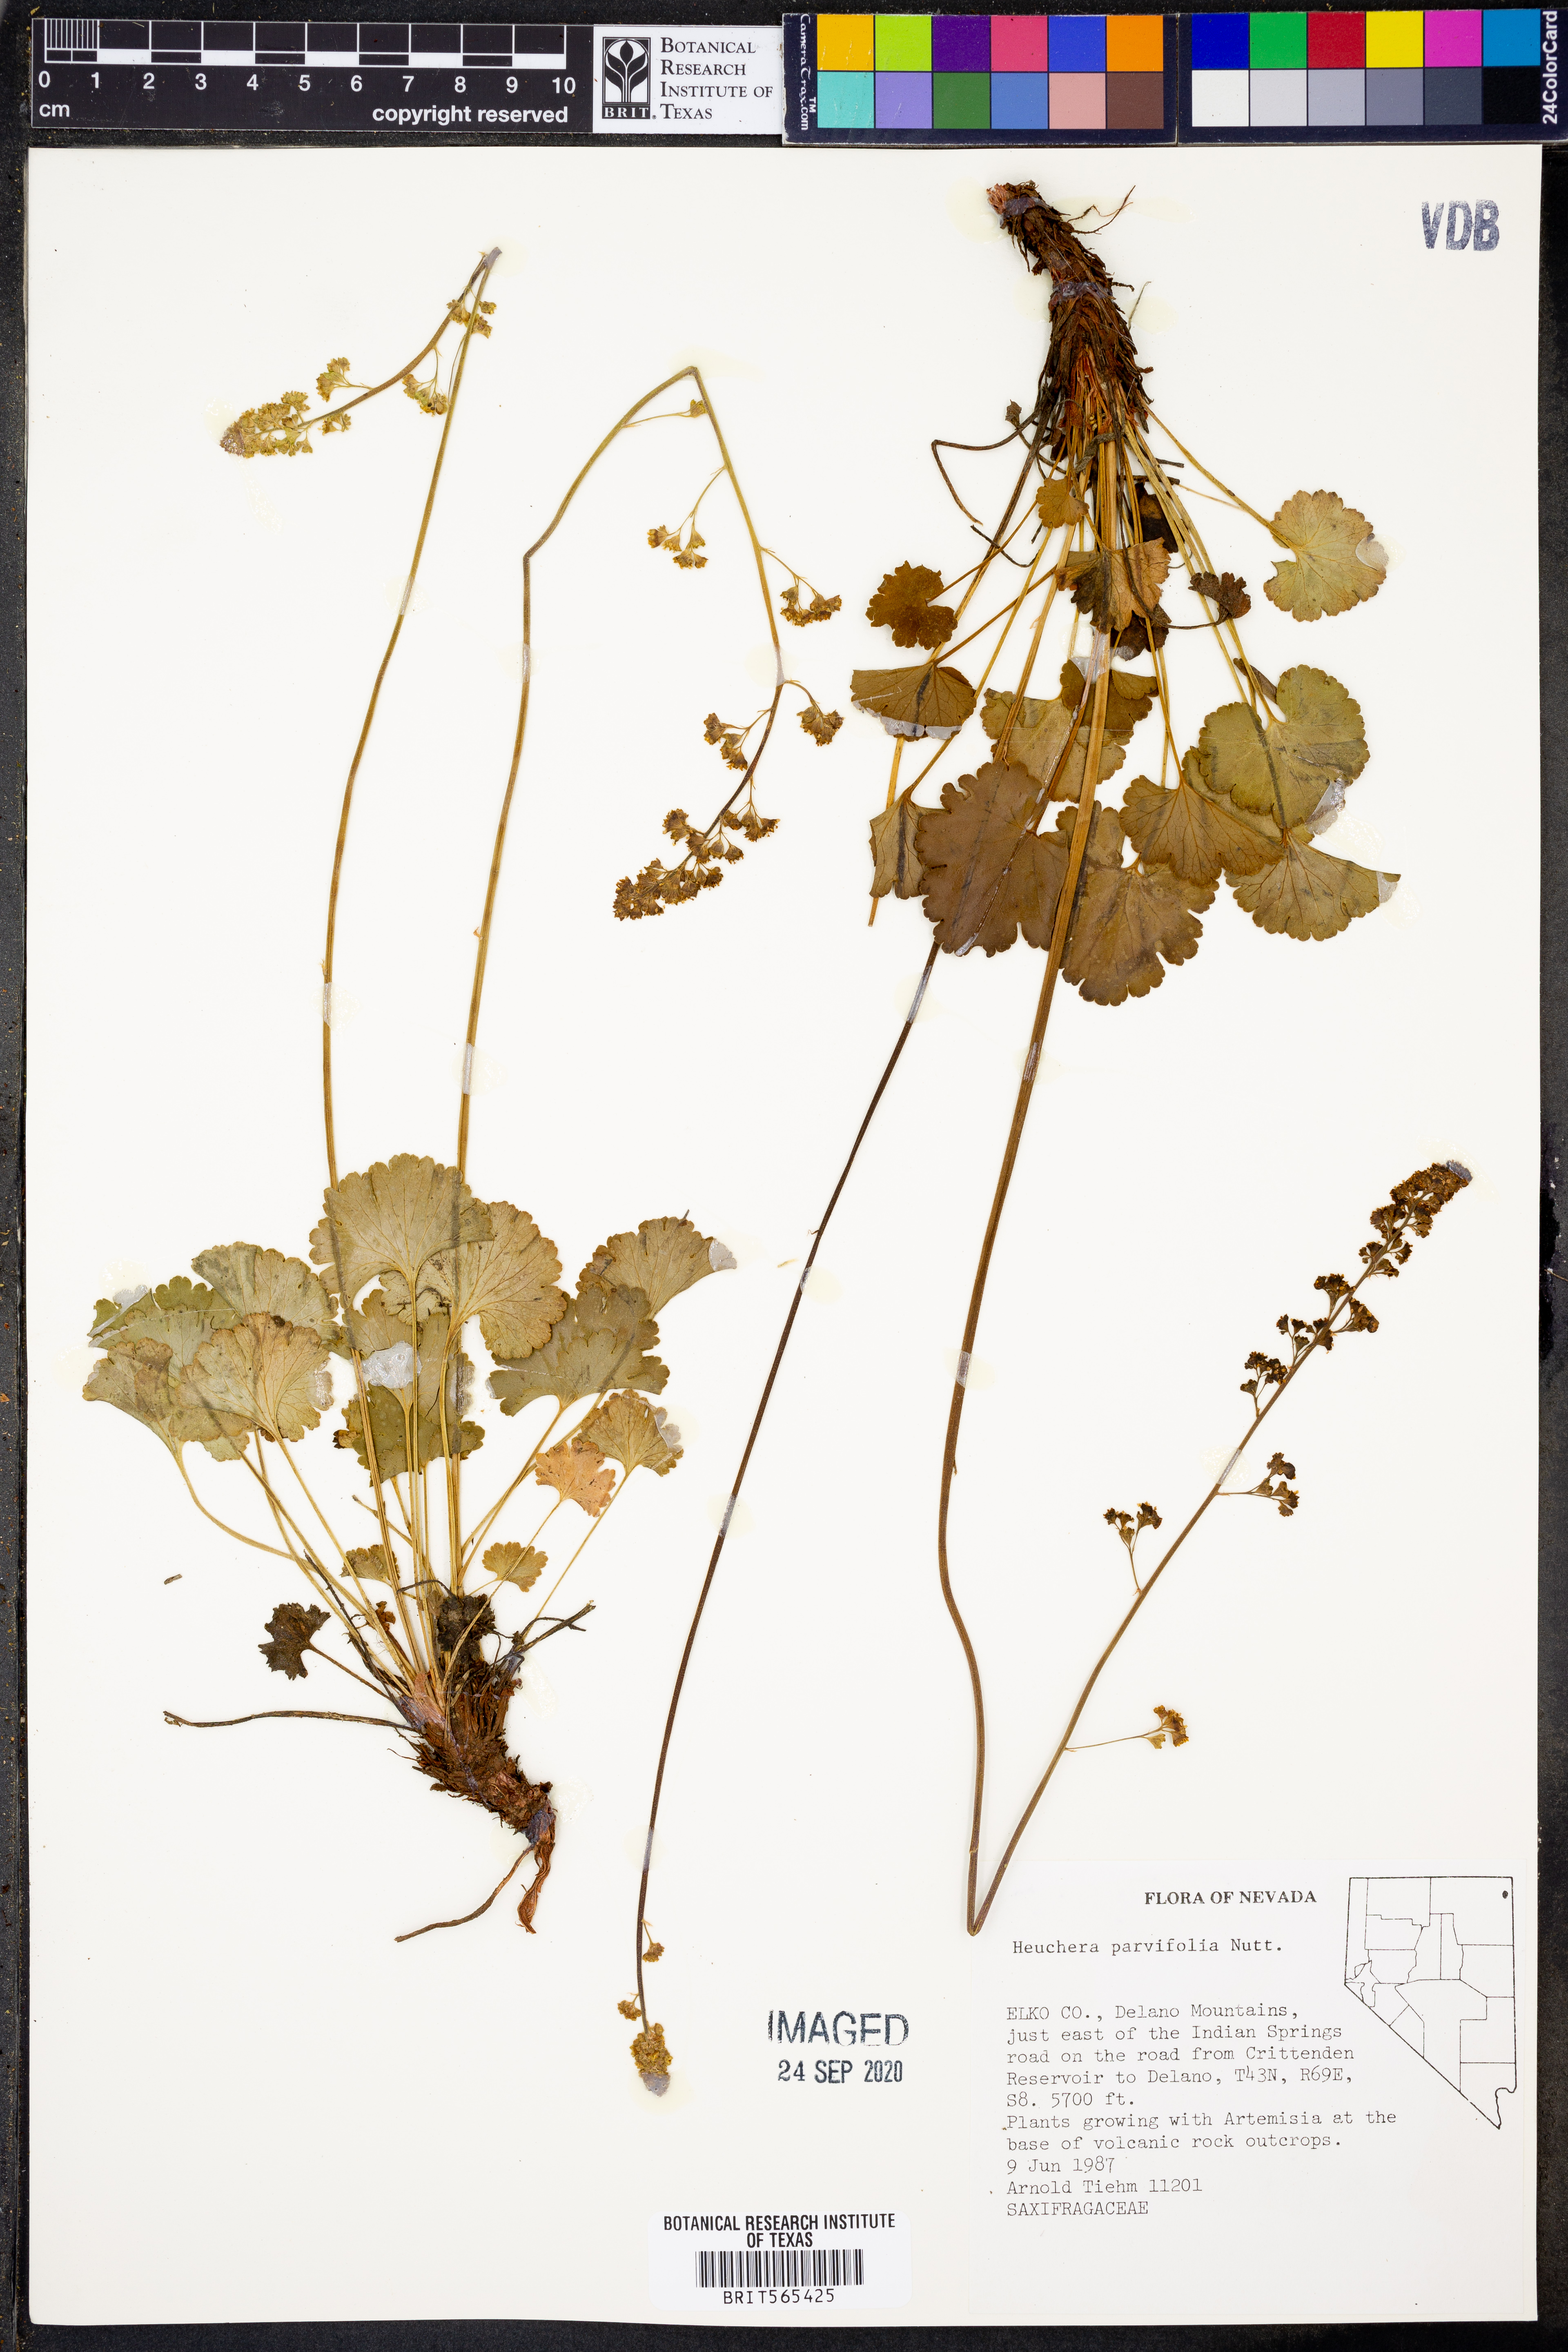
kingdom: Plantae
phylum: Tracheophyta
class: Magnoliopsida
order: Saxifragales
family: Saxifragaceae
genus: Heuchera
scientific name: Heuchera parvifolia
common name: Common alumroot
